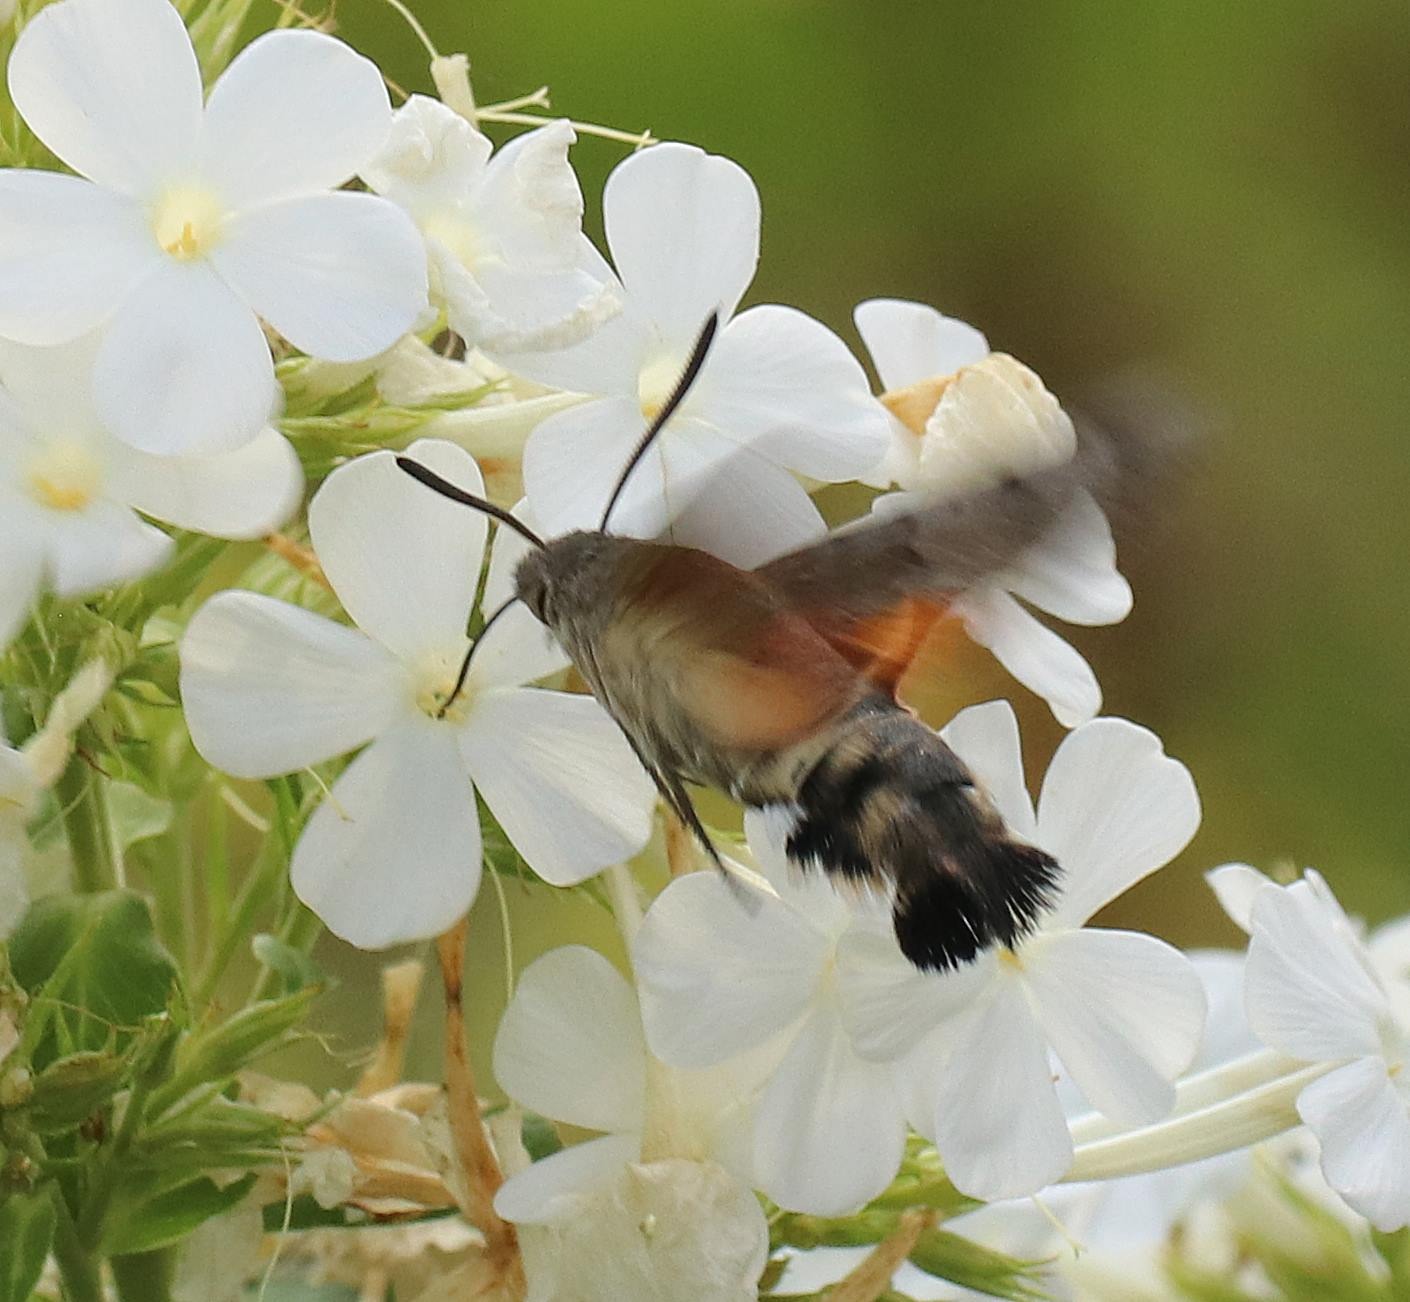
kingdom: Animalia
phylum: Arthropoda
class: Insecta
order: Lepidoptera
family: Sphingidae
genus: Macroglossum
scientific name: Macroglossum stellatarum
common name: Duehale
